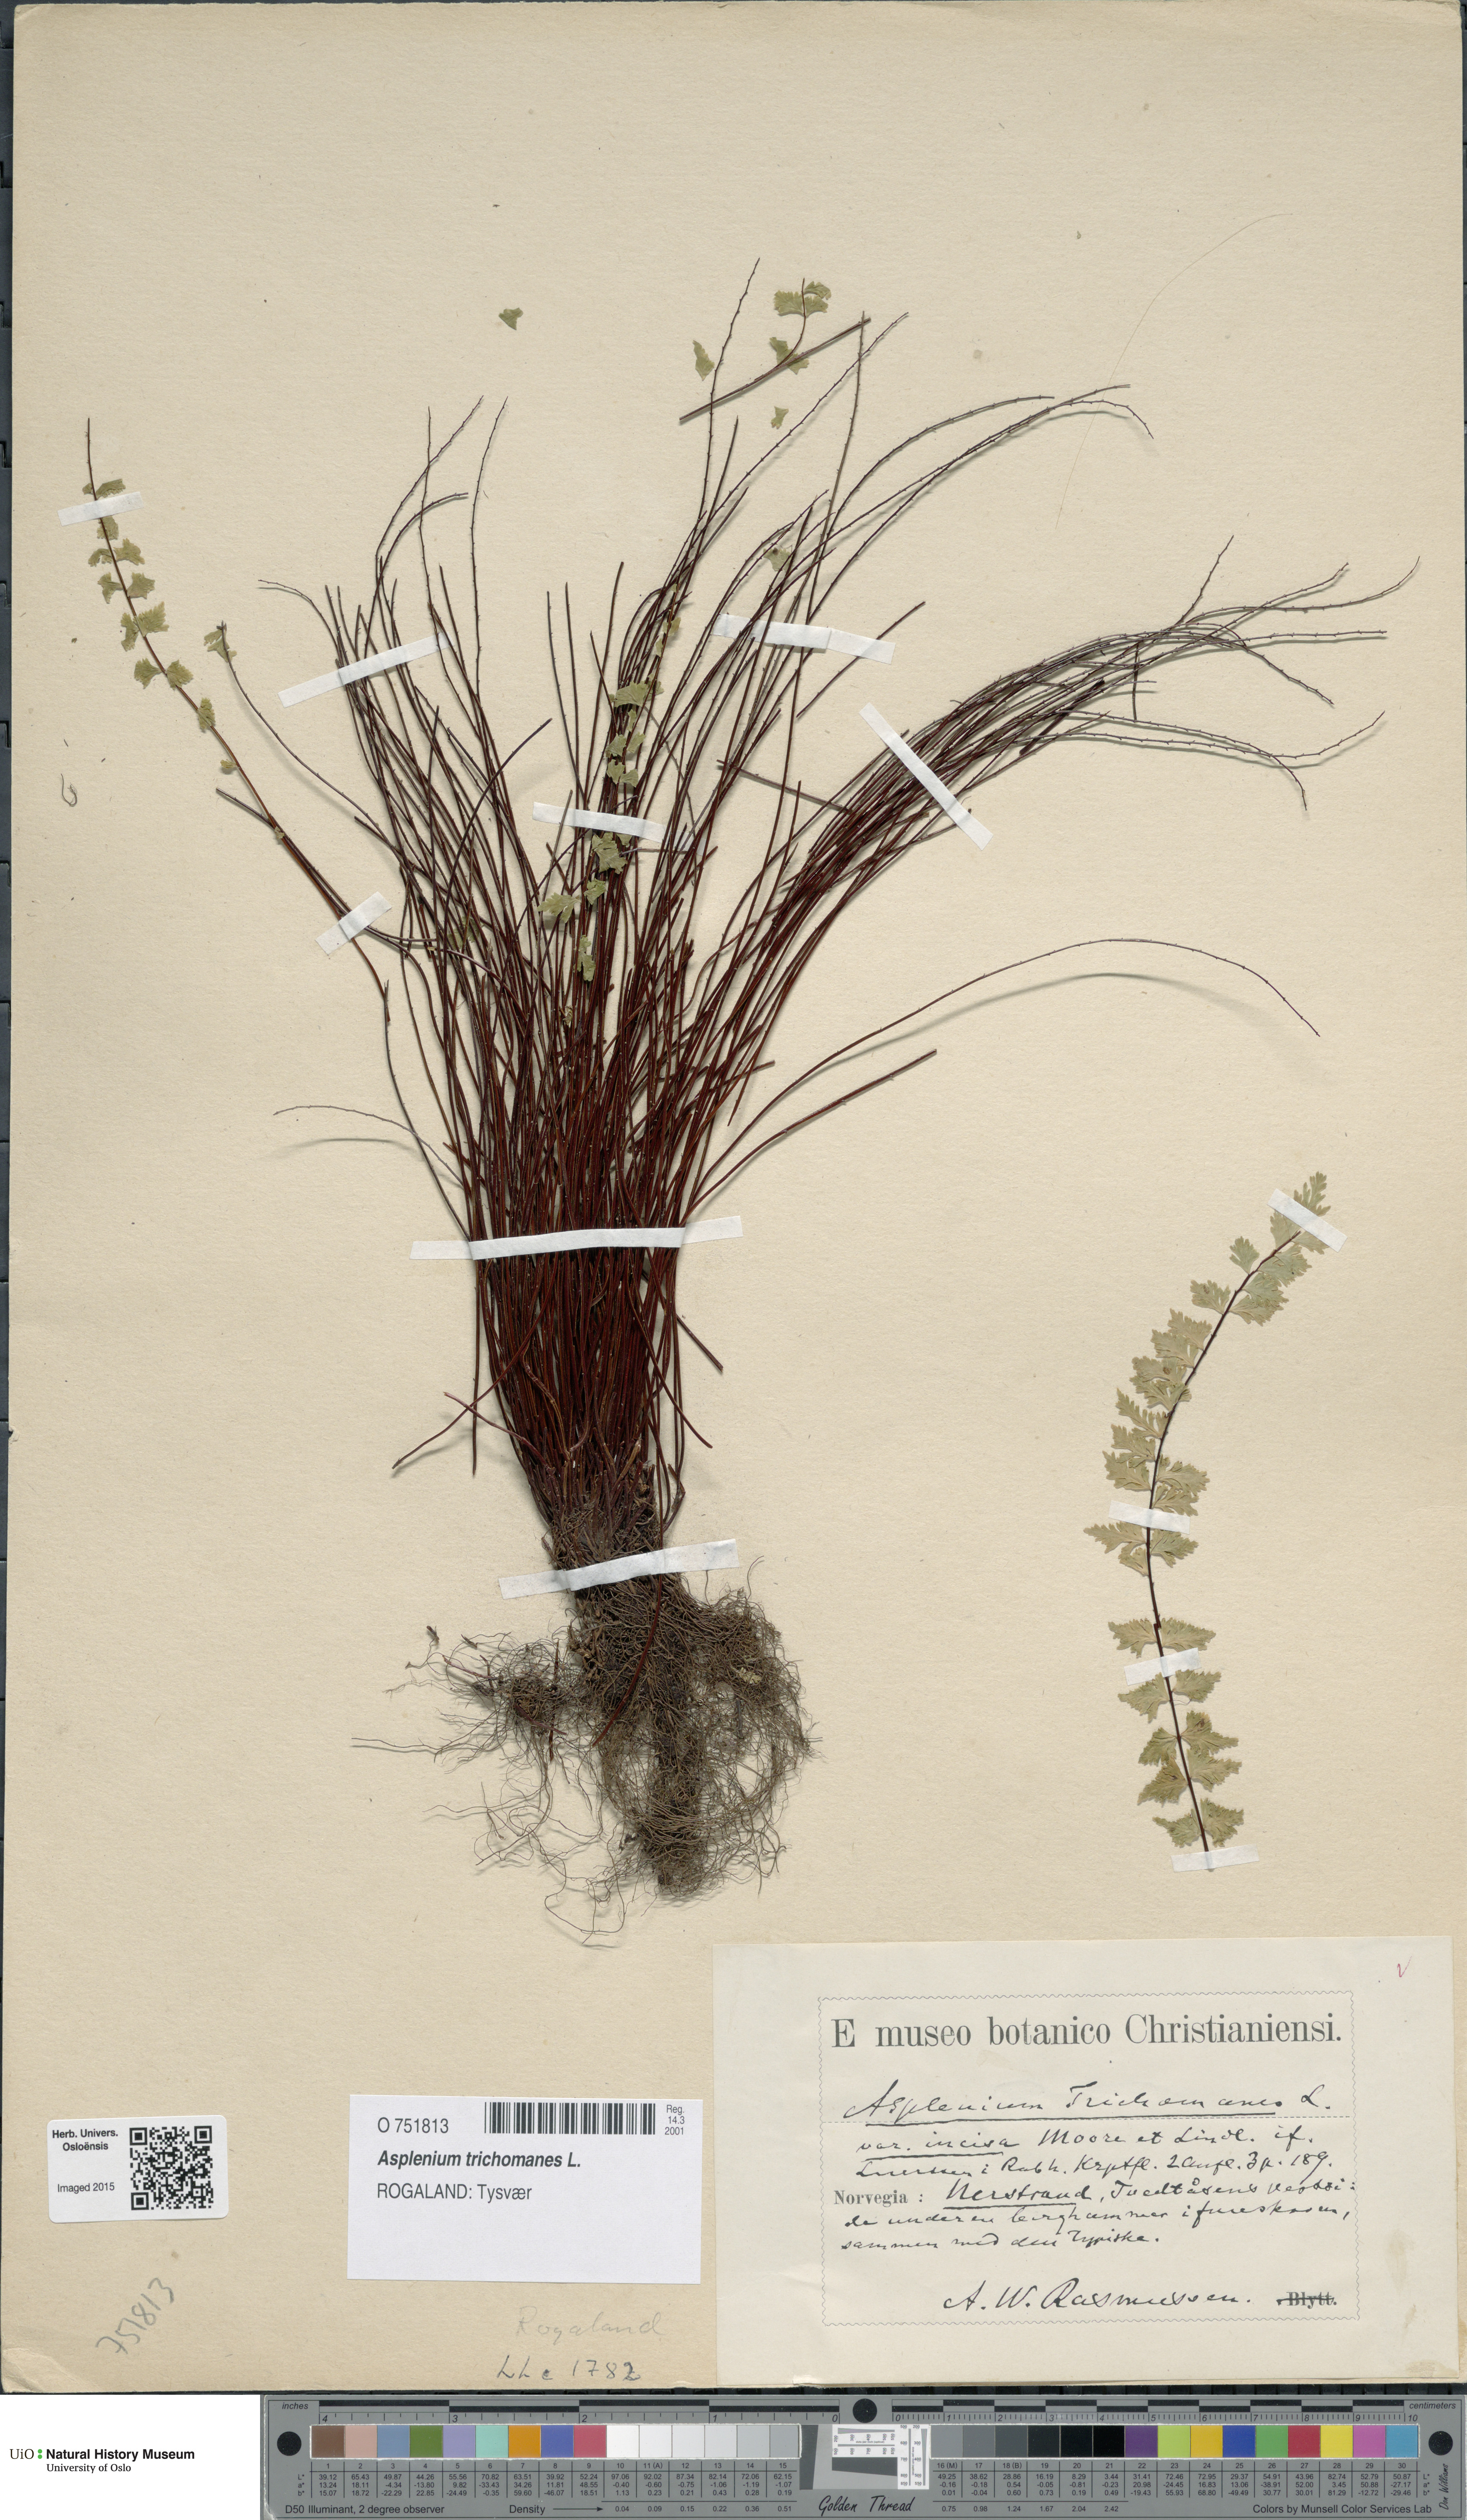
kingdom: Plantae
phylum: Tracheophyta
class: Polypodiopsida
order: Polypodiales
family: Aspleniaceae
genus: Asplenium
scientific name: Asplenium trichomanes
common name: Maidenhair spleenwort
